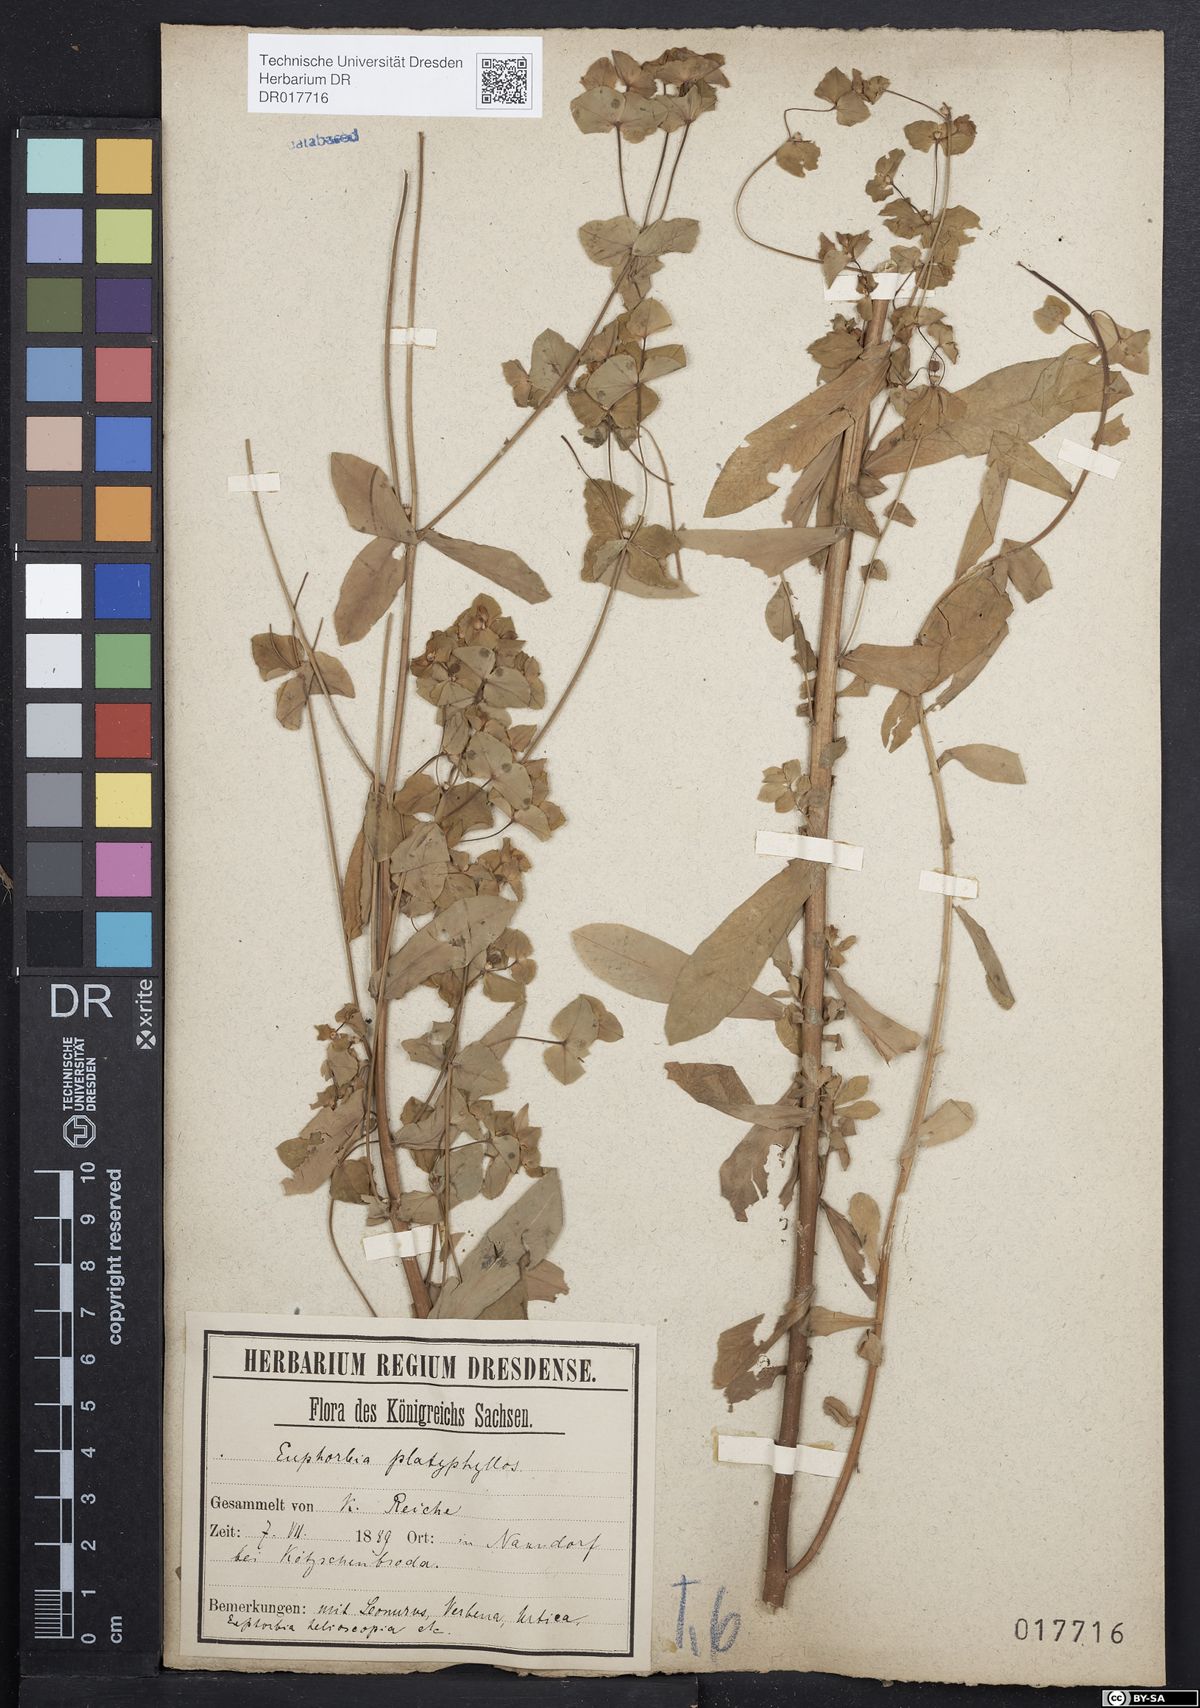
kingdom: Plantae
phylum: Tracheophyta
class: Magnoliopsida
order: Malpighiales
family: Euphorbiaceae
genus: Euphorbia
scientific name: Euphorbia platyphyllos
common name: Broad-leaved spurge
